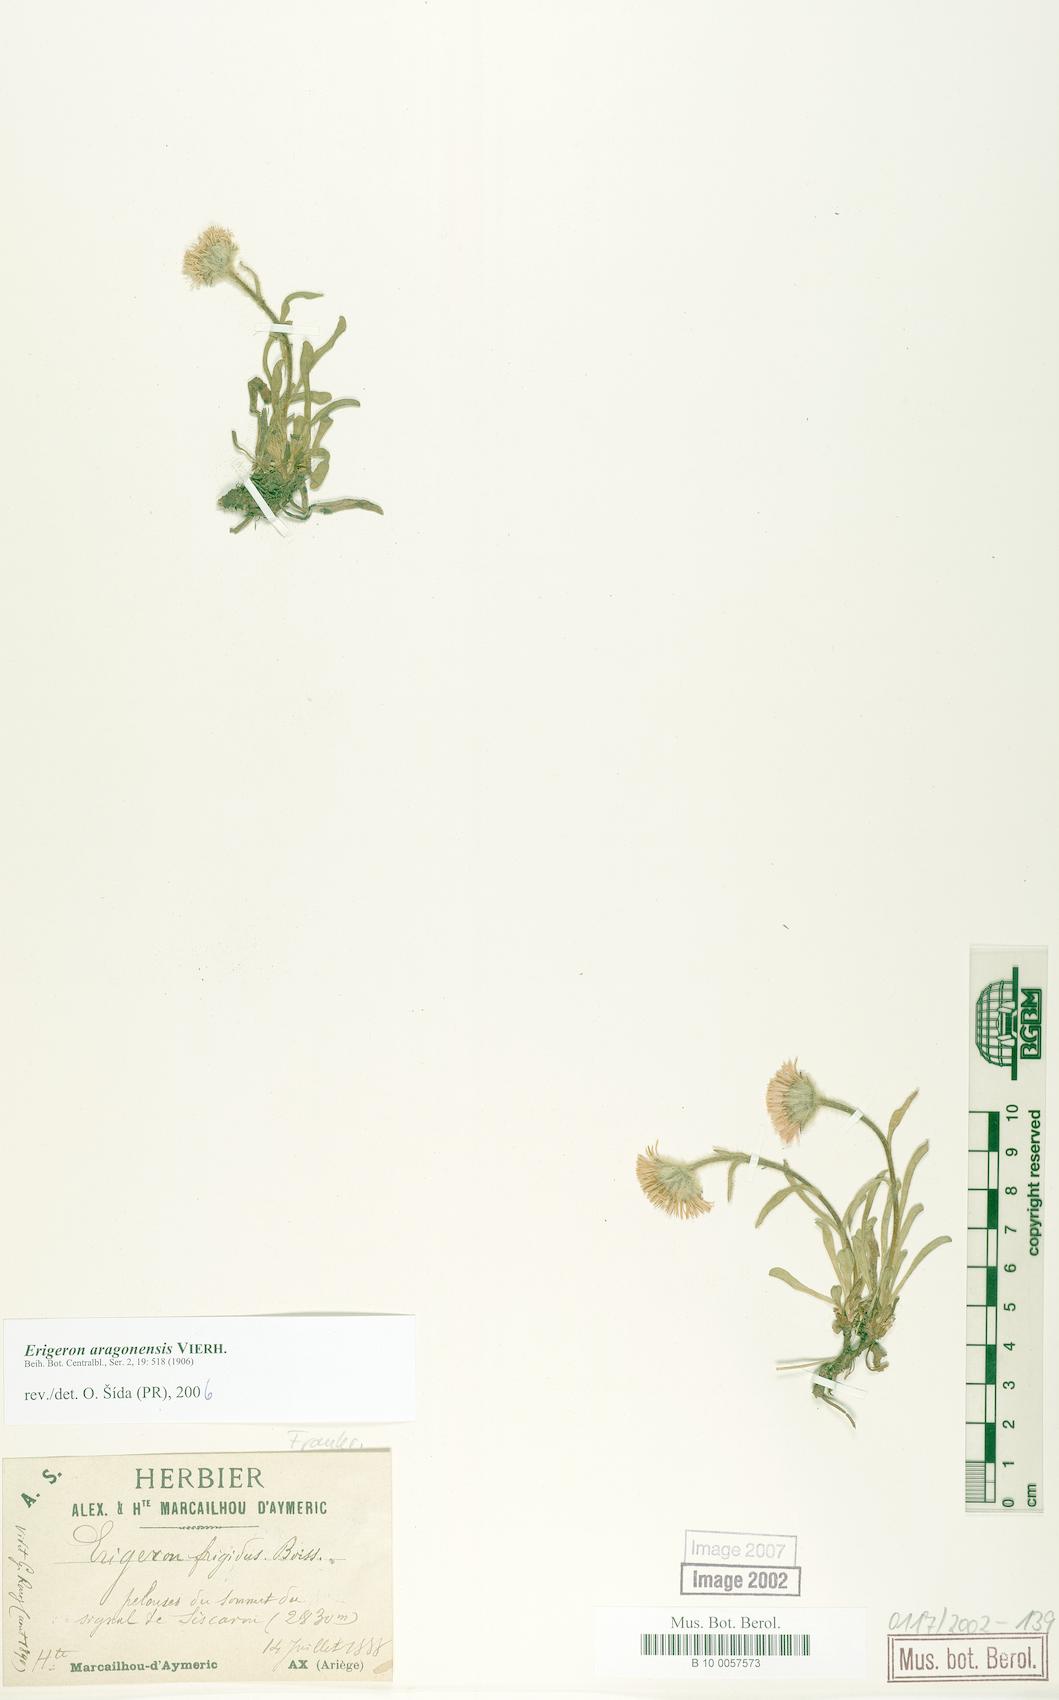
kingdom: Plantae
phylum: Tracheophyta
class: Magnoliopsida
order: Asterales
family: Asteraceae
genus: Erigeron
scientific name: Erigeron aragonensis
